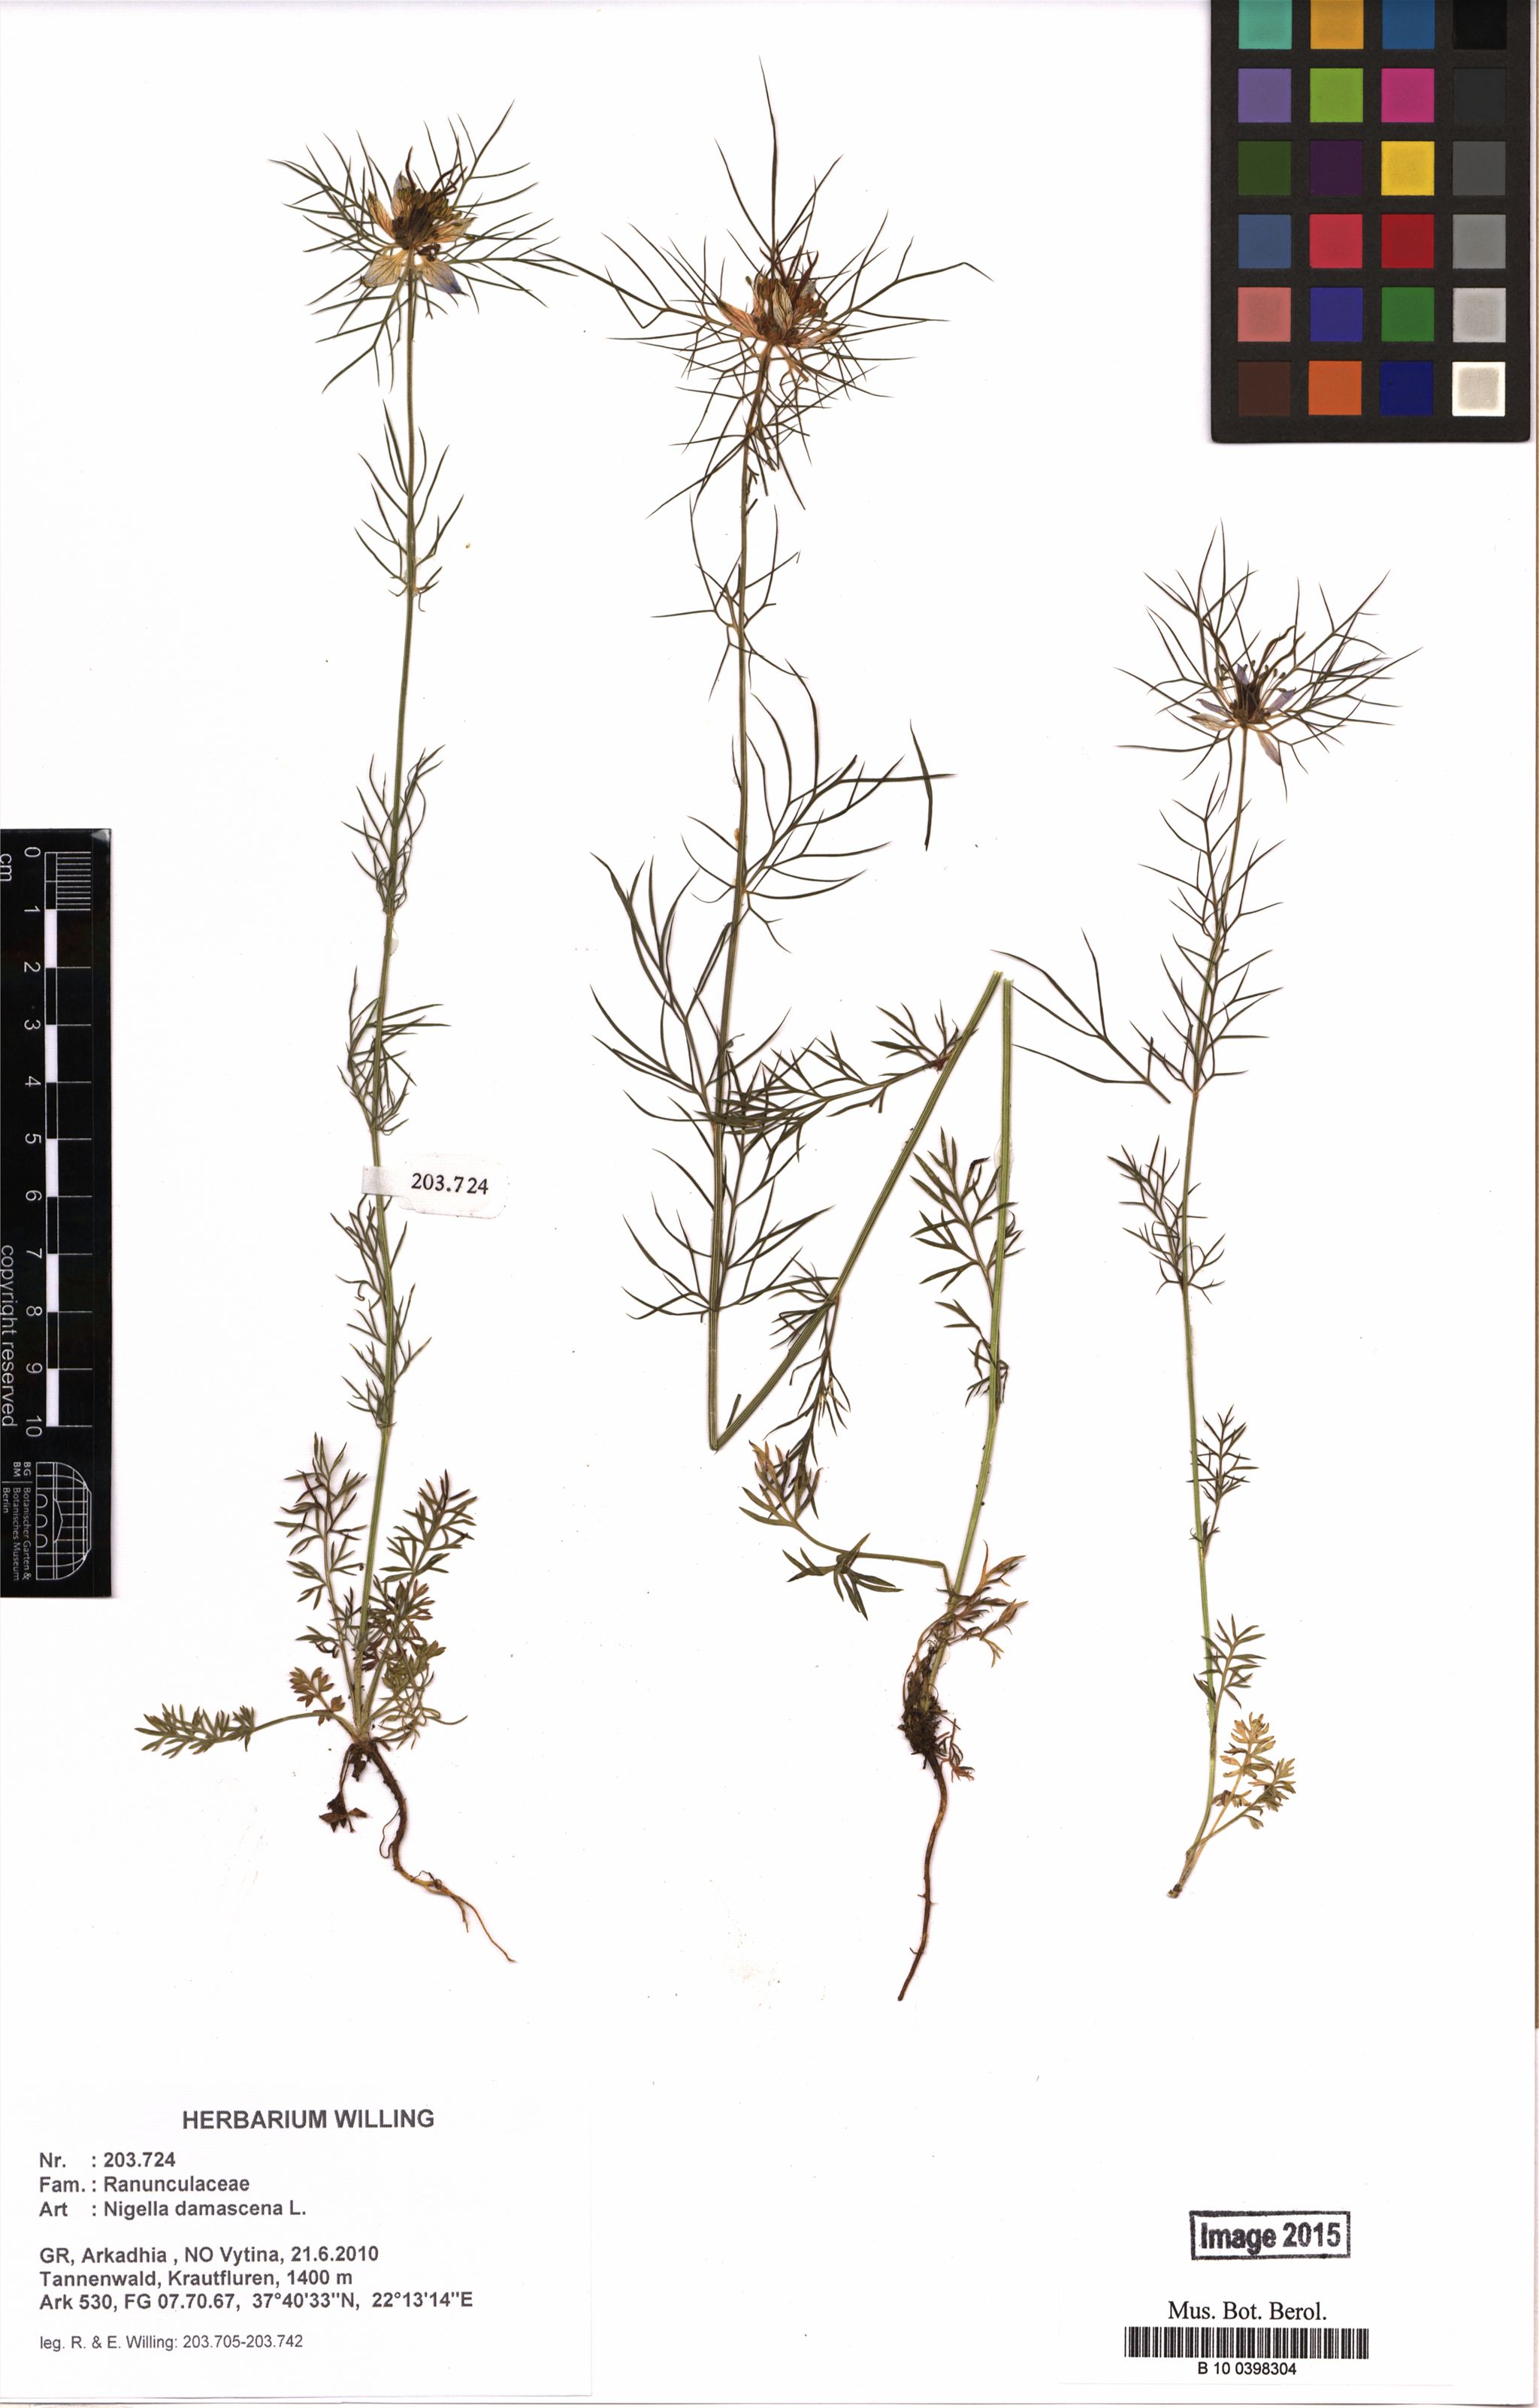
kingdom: Plantae
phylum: Tracheophyta
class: Magnoliopsida
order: Ranunculales
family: Ranunculaceae
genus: Nigella
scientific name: Nigella damascena
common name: Love-in-a-mist
